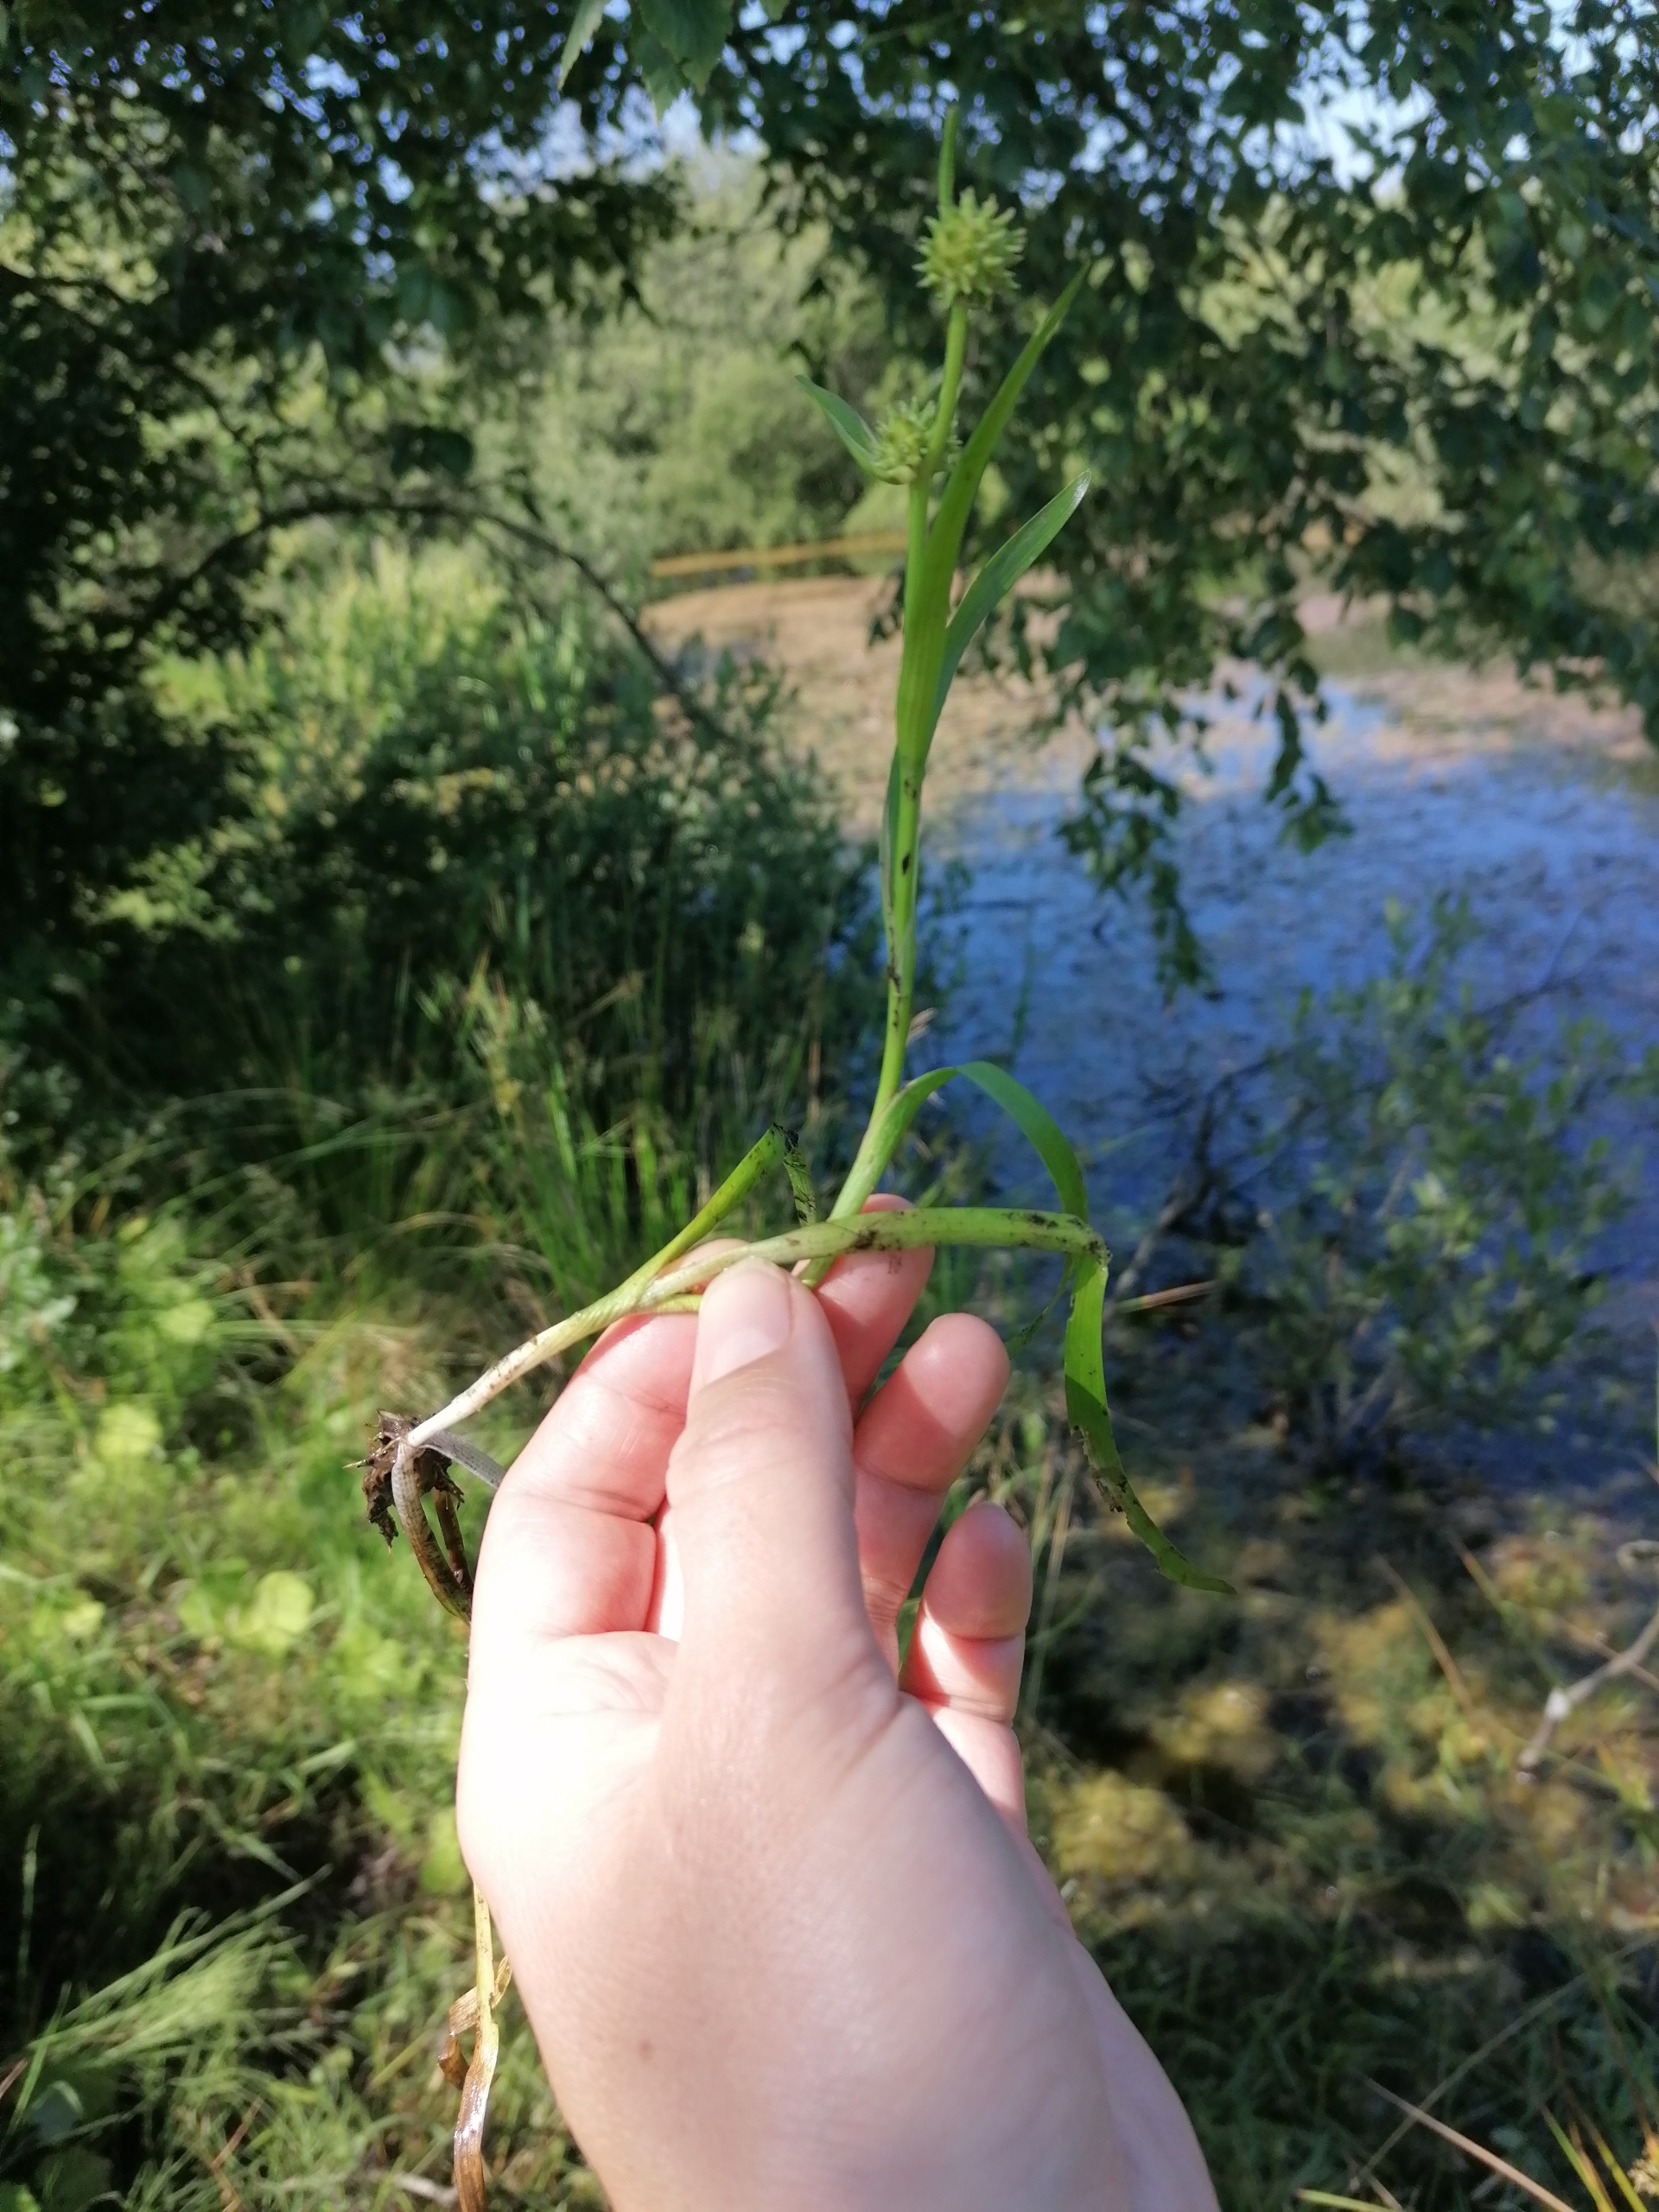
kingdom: Plantae
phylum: Tracheophyta
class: Liliopsida
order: Poales
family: Typhaceae
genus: Sparganium
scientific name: Sparganium natans
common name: Spæd pindsvineknop
